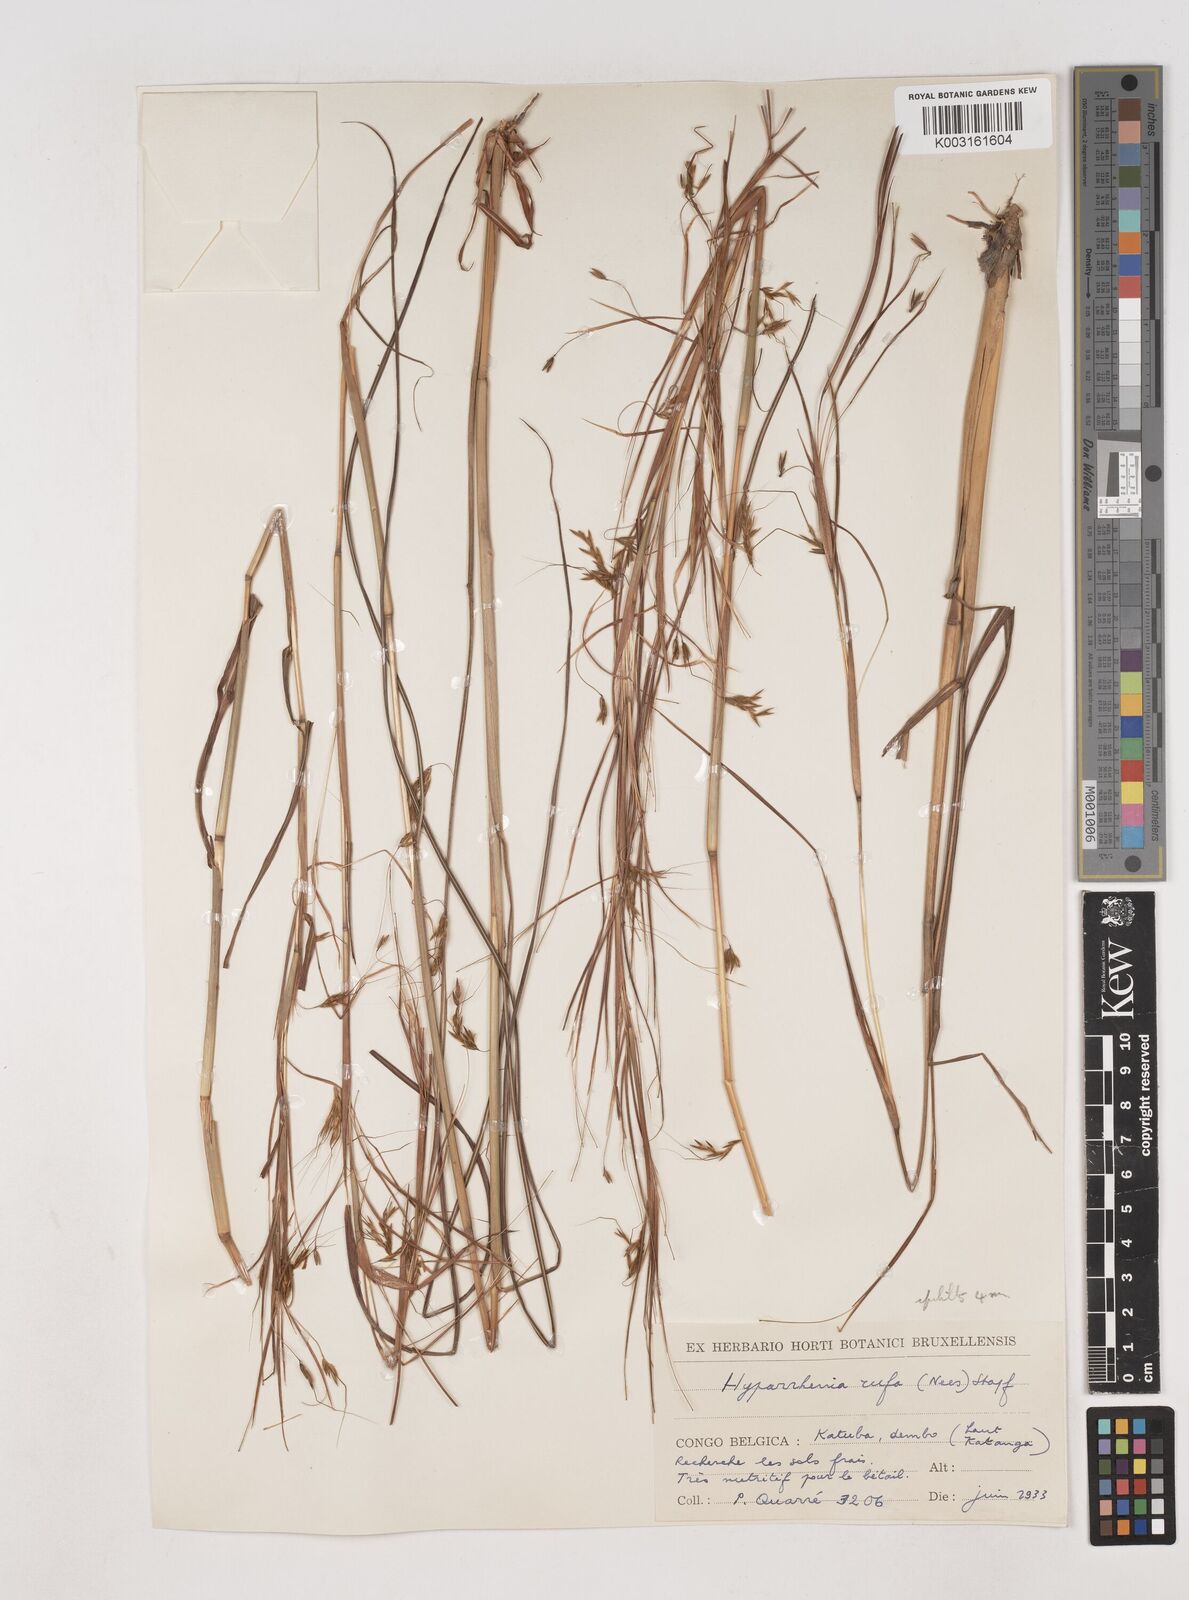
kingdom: Plantae
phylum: Tracheophyta
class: Liliopsida
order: Poales
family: Poaceae
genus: Hyparrhenia
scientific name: Hyparrhenia rufa
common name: Jaraguagrass
